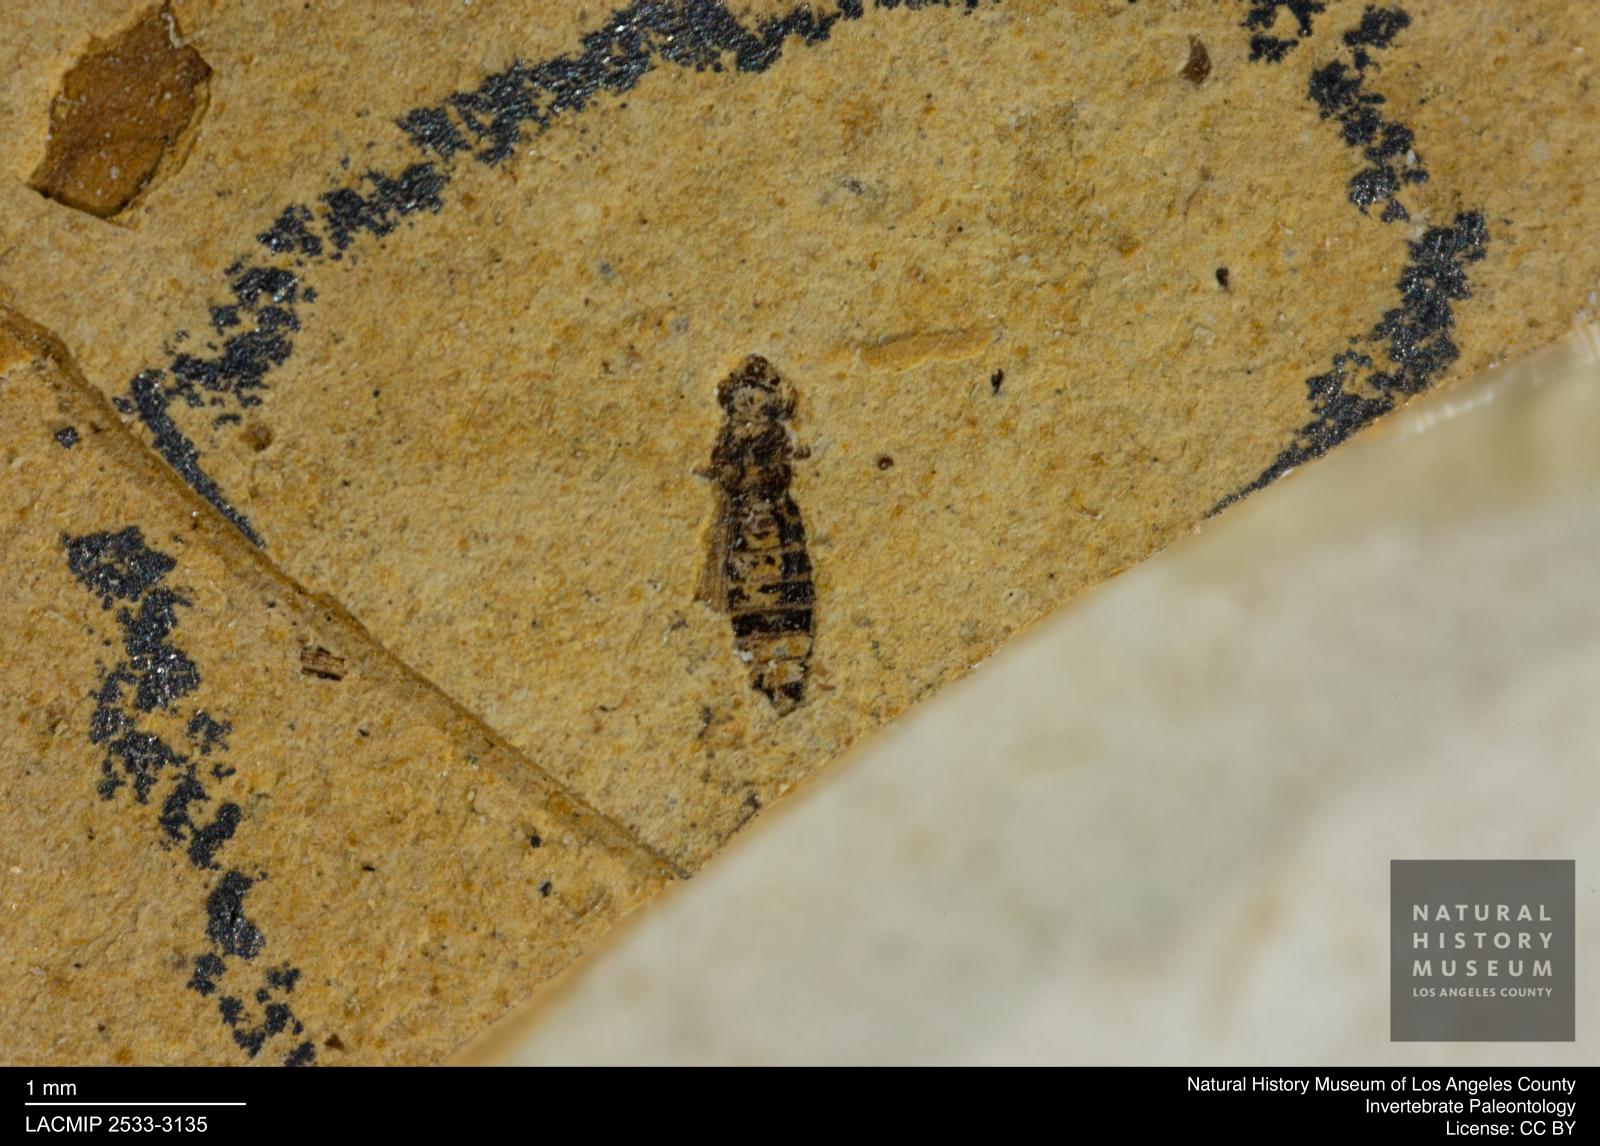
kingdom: Animalia
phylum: Arthropoda
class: Insecta
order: Thysanoptera
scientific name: Thysanoptera
